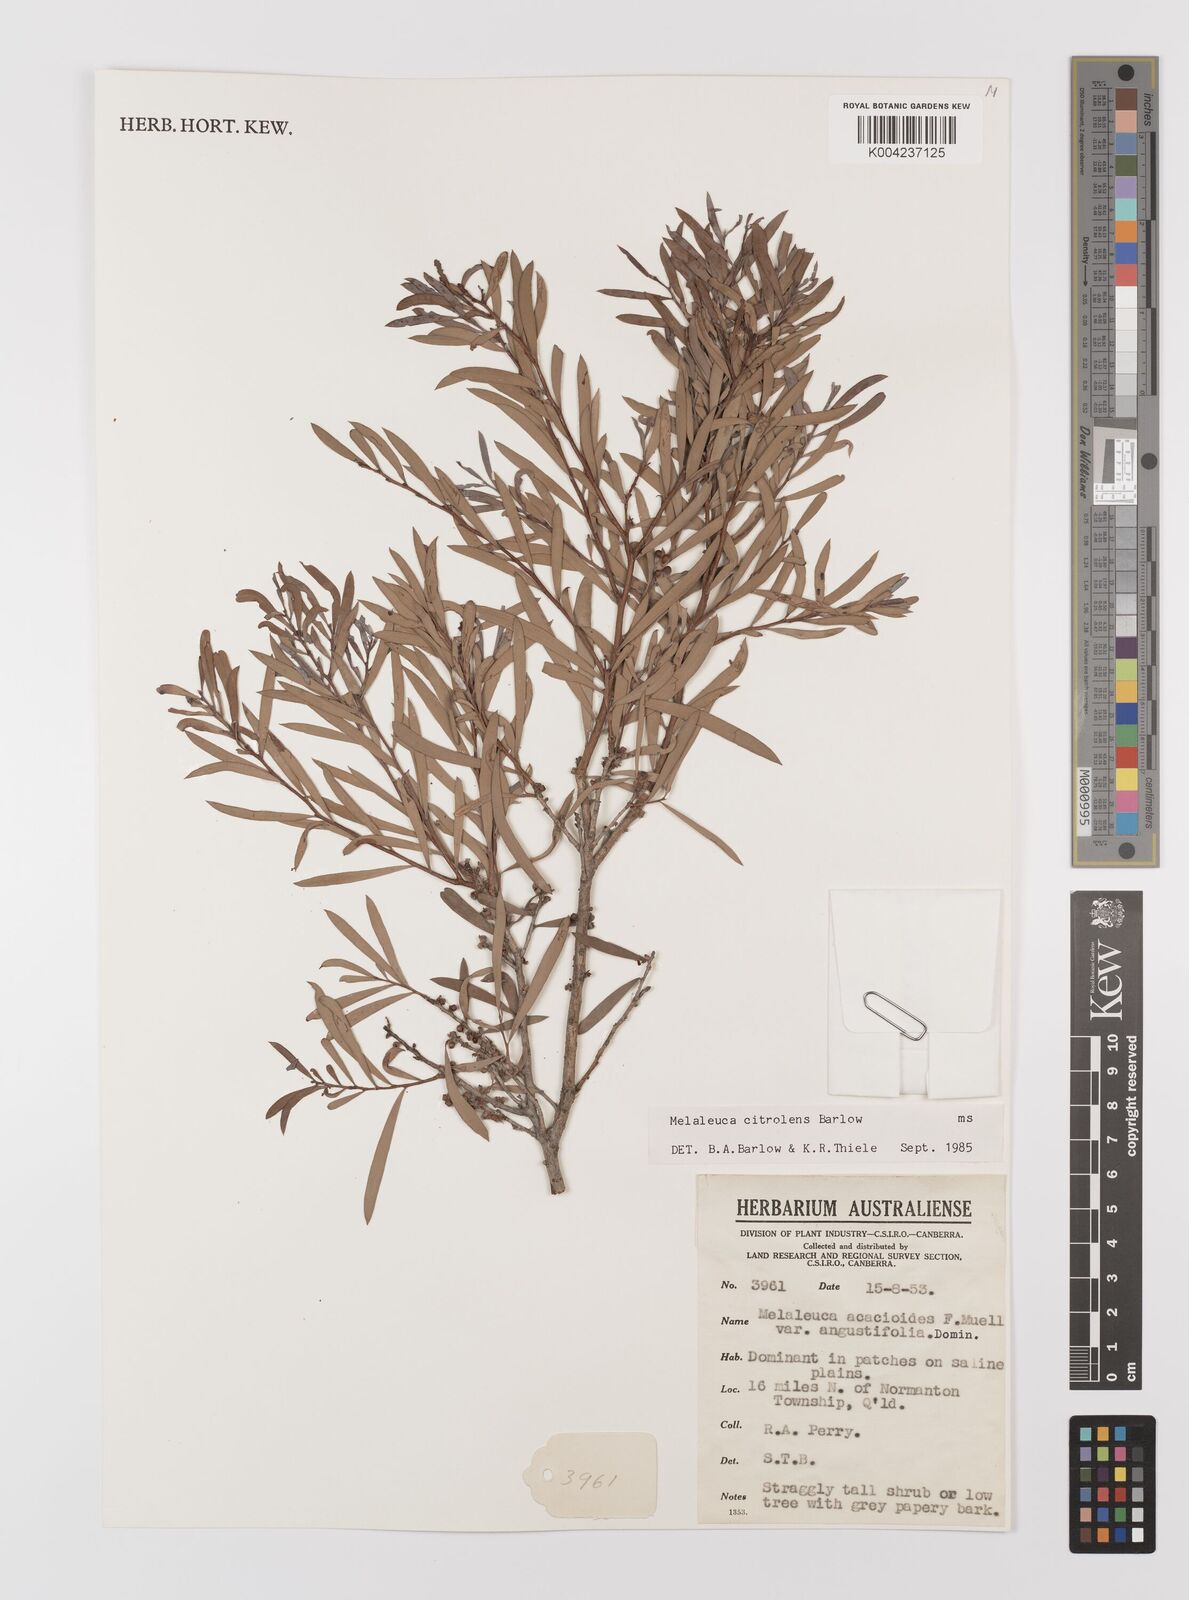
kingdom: Plantae
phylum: Tracheophyta
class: Magnoliopsida
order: Myrtales
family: Myrtaceae
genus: Melaleuca
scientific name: Melaleuca citrolens
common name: Lemon-scented paperbark
